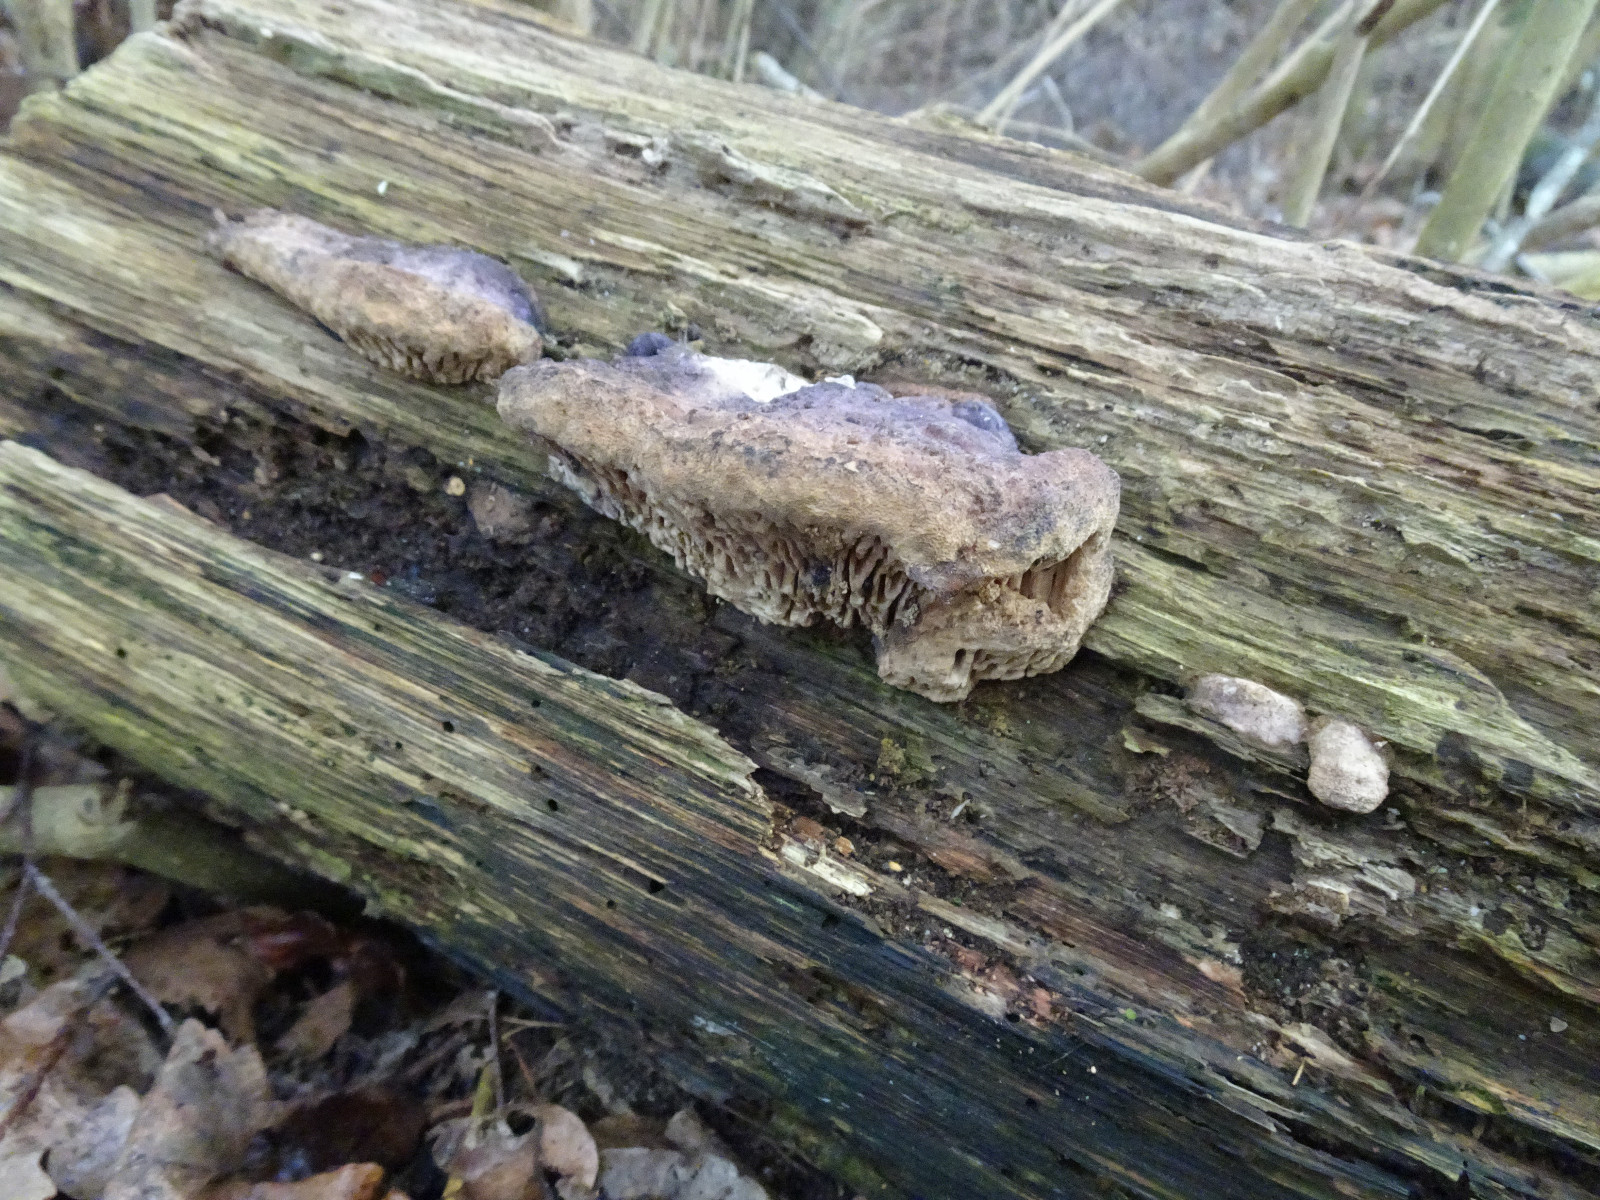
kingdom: Fungi
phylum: Basidiomycota
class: Agaricomycetes
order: Polyporales
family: Fomitopsidaceae
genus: Daedalea
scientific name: Daedalea quercina
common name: ege-labyrintsvamp
